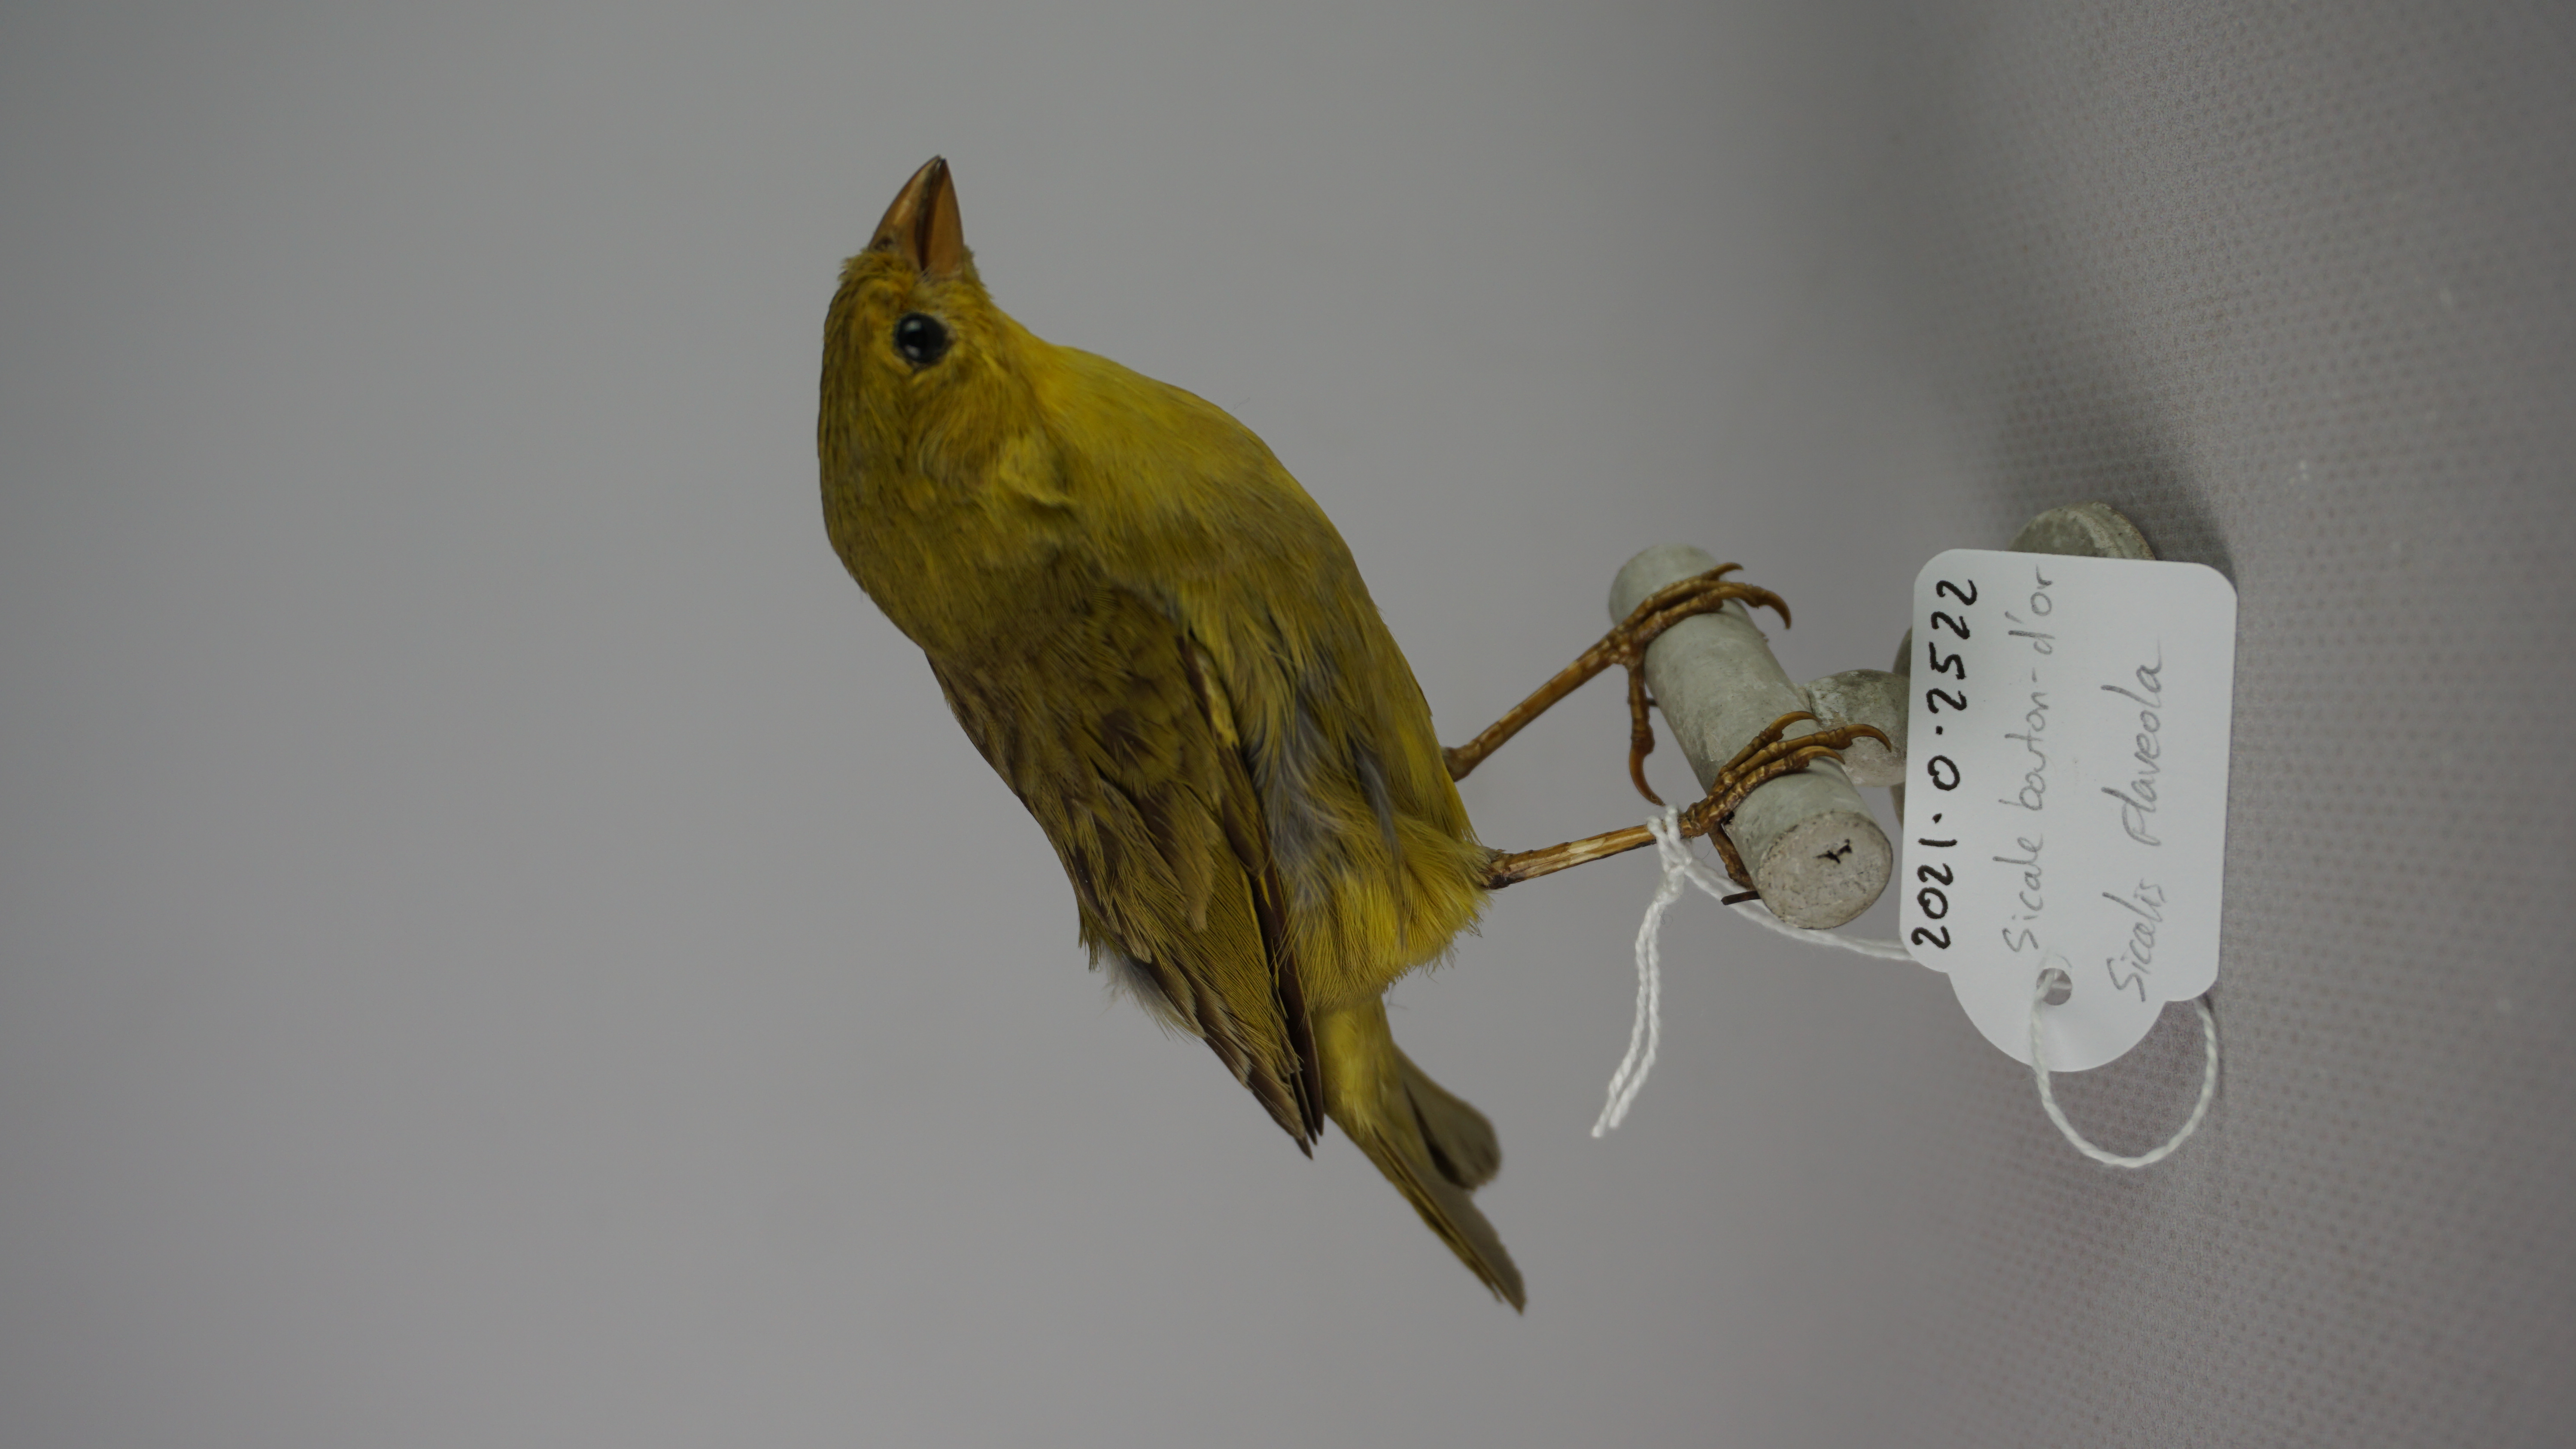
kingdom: Animalia
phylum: Chordata
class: Aves
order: Passeriformes
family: Thraupidae
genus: Sicalis
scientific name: Sicalis flaveola
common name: Saffron finch
